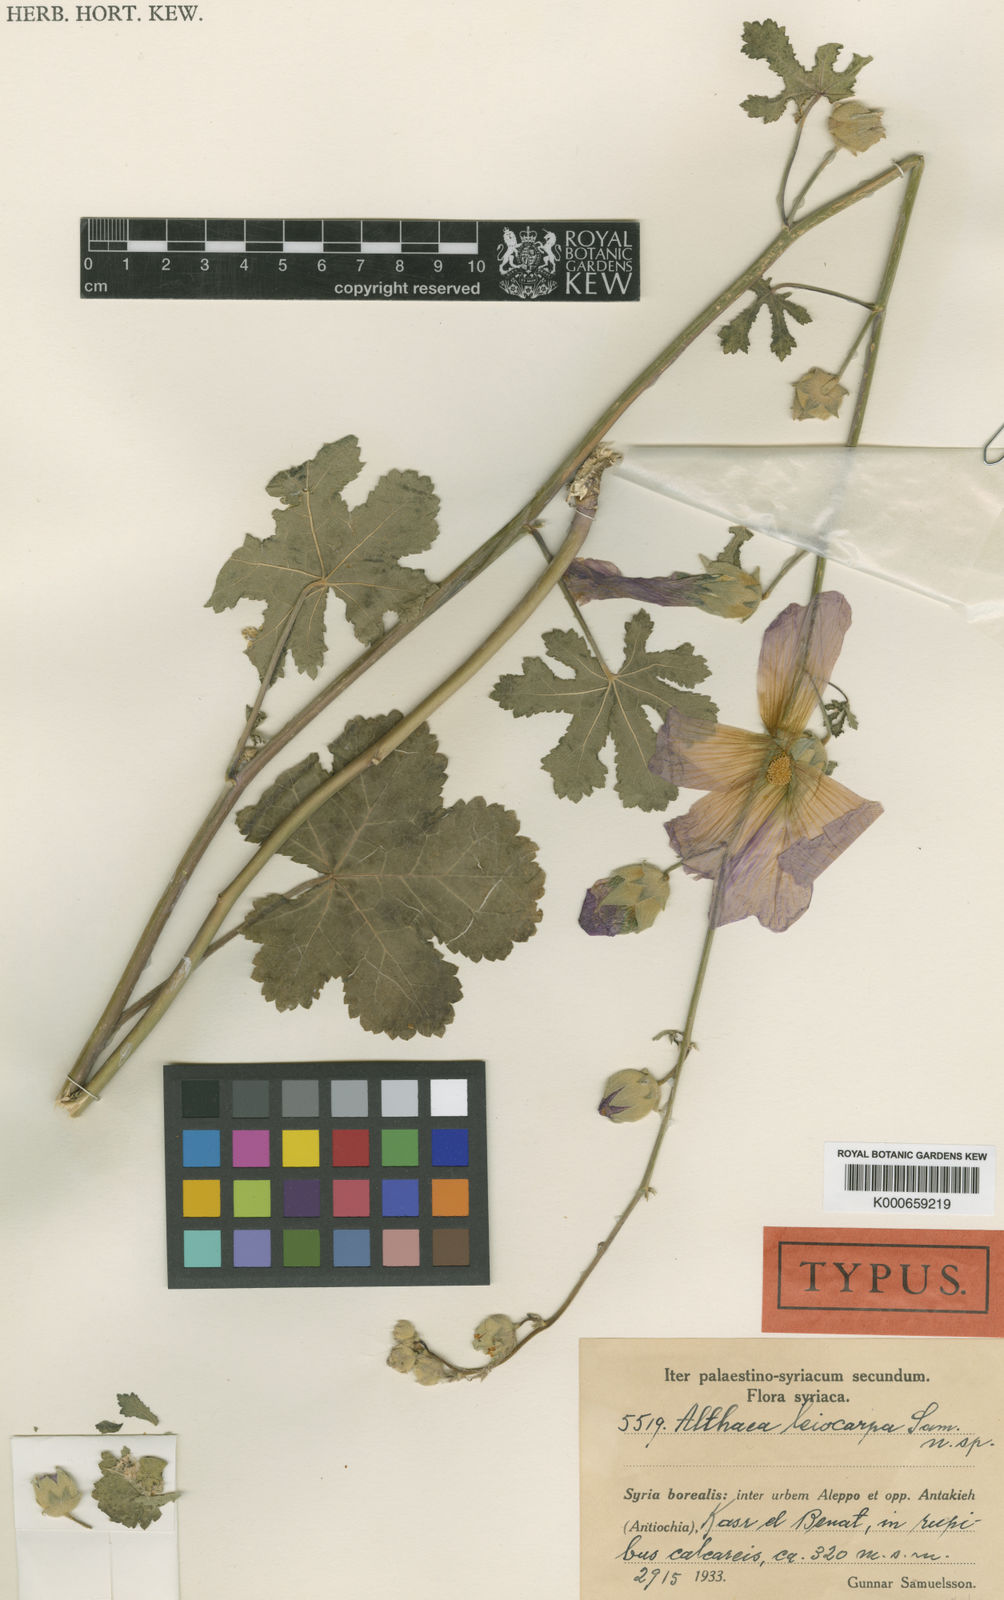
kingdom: Plantae
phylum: Tracheophyta
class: Magnoliopsida
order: Malvales
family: Malvaceae
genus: Alcea
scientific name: Alcea kurdica
